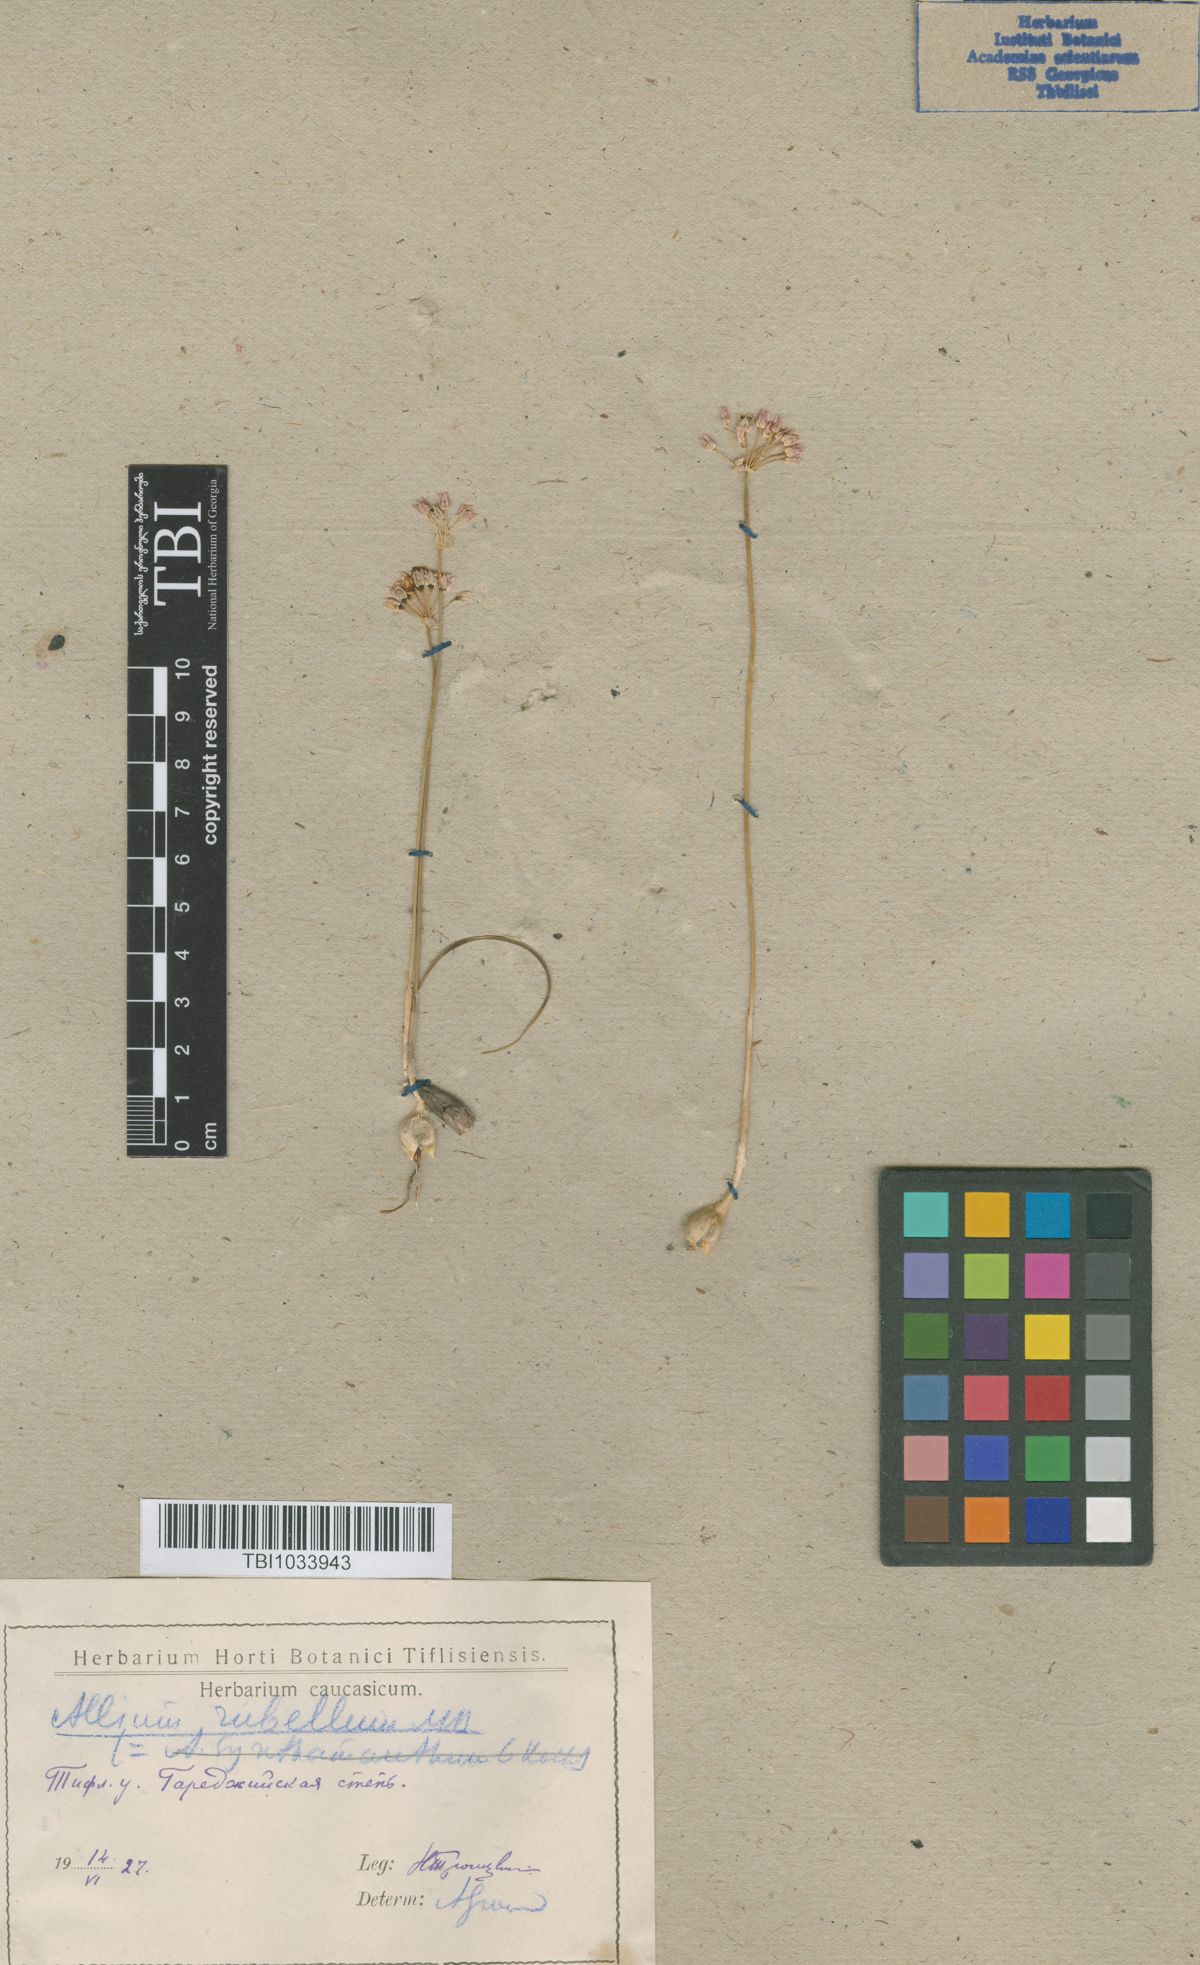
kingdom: Plantae
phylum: Tracheophyta
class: Liliopsida
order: Asparagales
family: Amaryllidaceae
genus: Allium
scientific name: Allium rubellum
